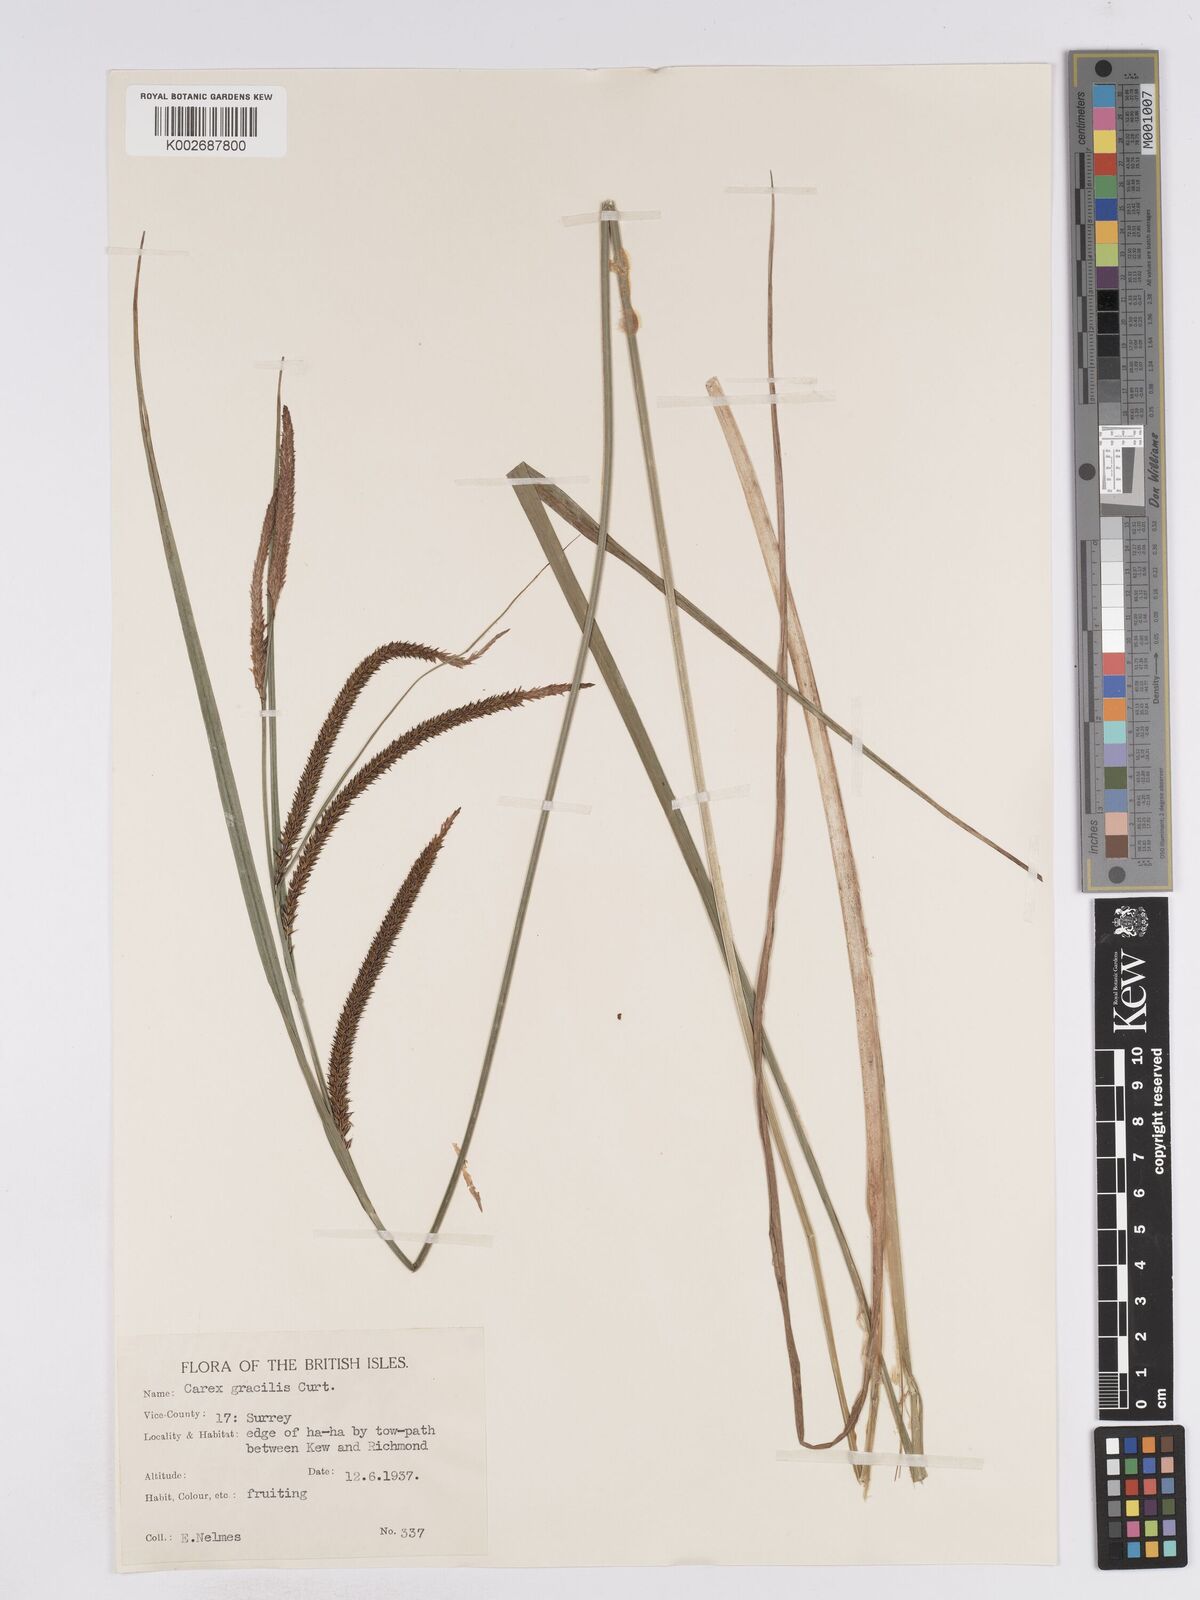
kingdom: Plantae
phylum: Tracheophyta
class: Liliopsida
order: Poales
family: Cyperaceae
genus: Carex
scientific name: Carex acuta
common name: Slender tufted-sedge
